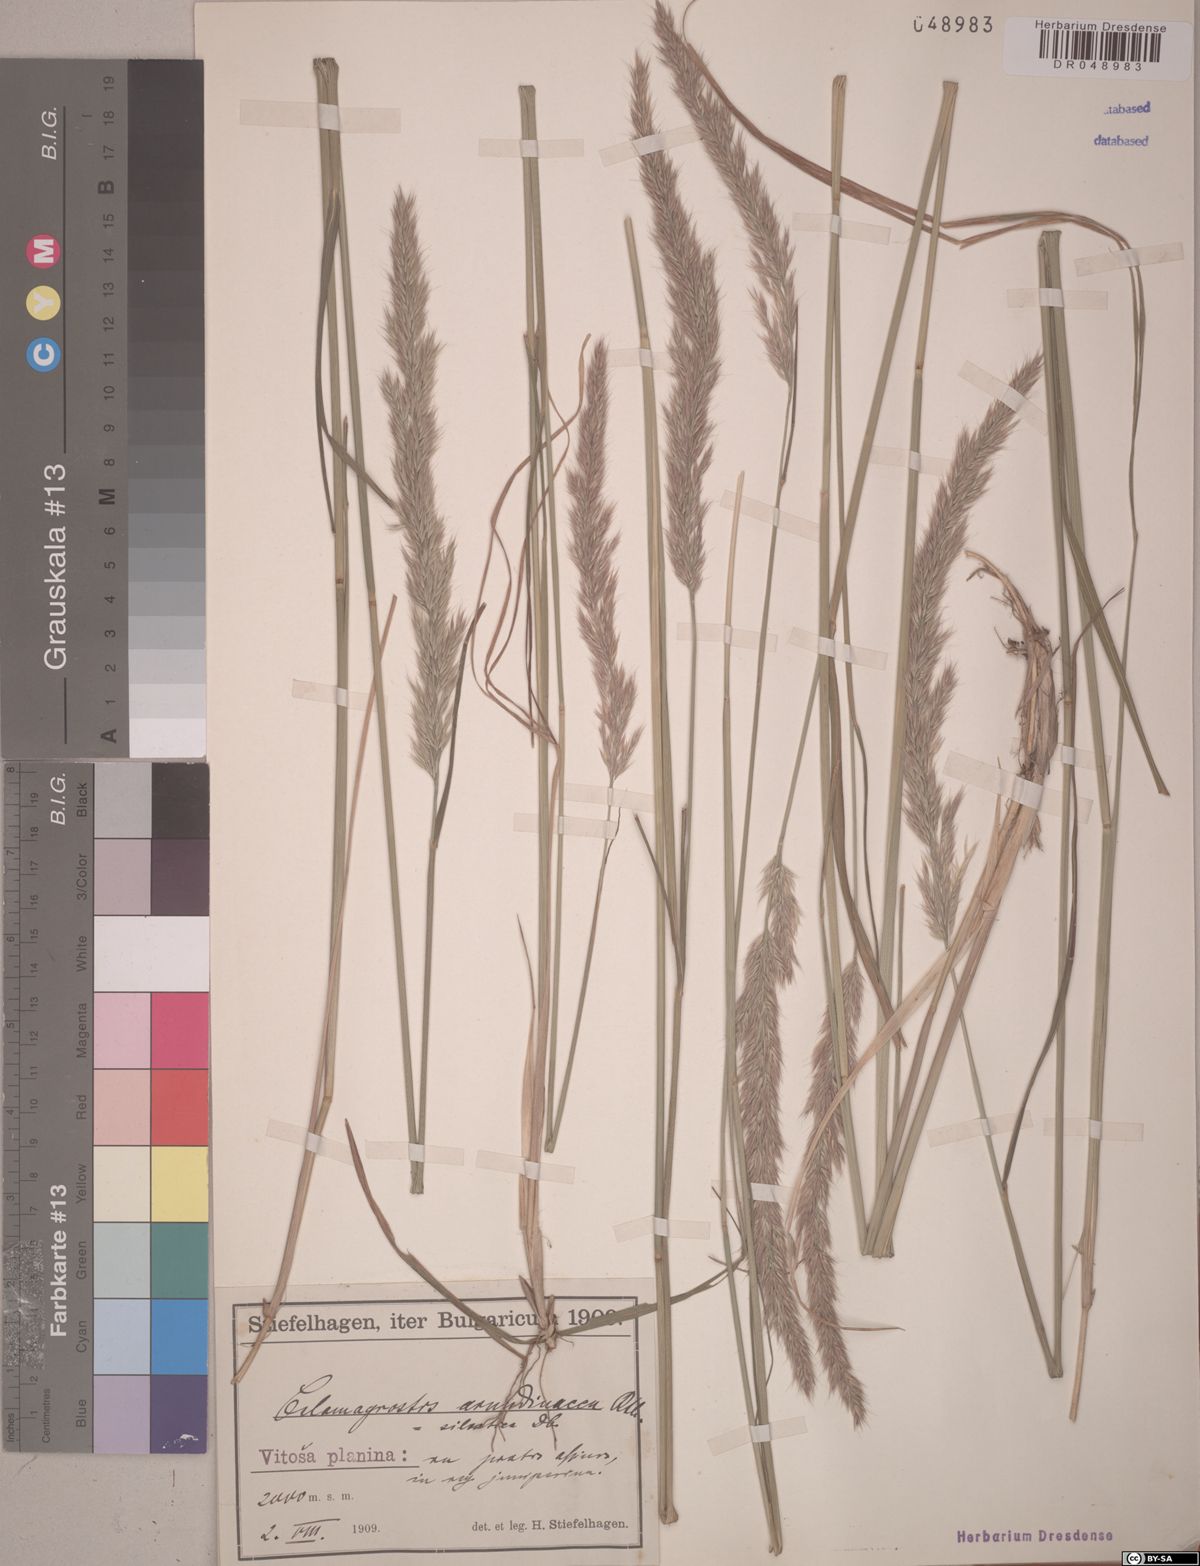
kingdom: Plantae
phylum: Tracheophyta
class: Liliopsida
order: Poales
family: Poaceae
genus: Calamagrostis
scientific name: Calamagrostis arundinacea
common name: Metskastik
